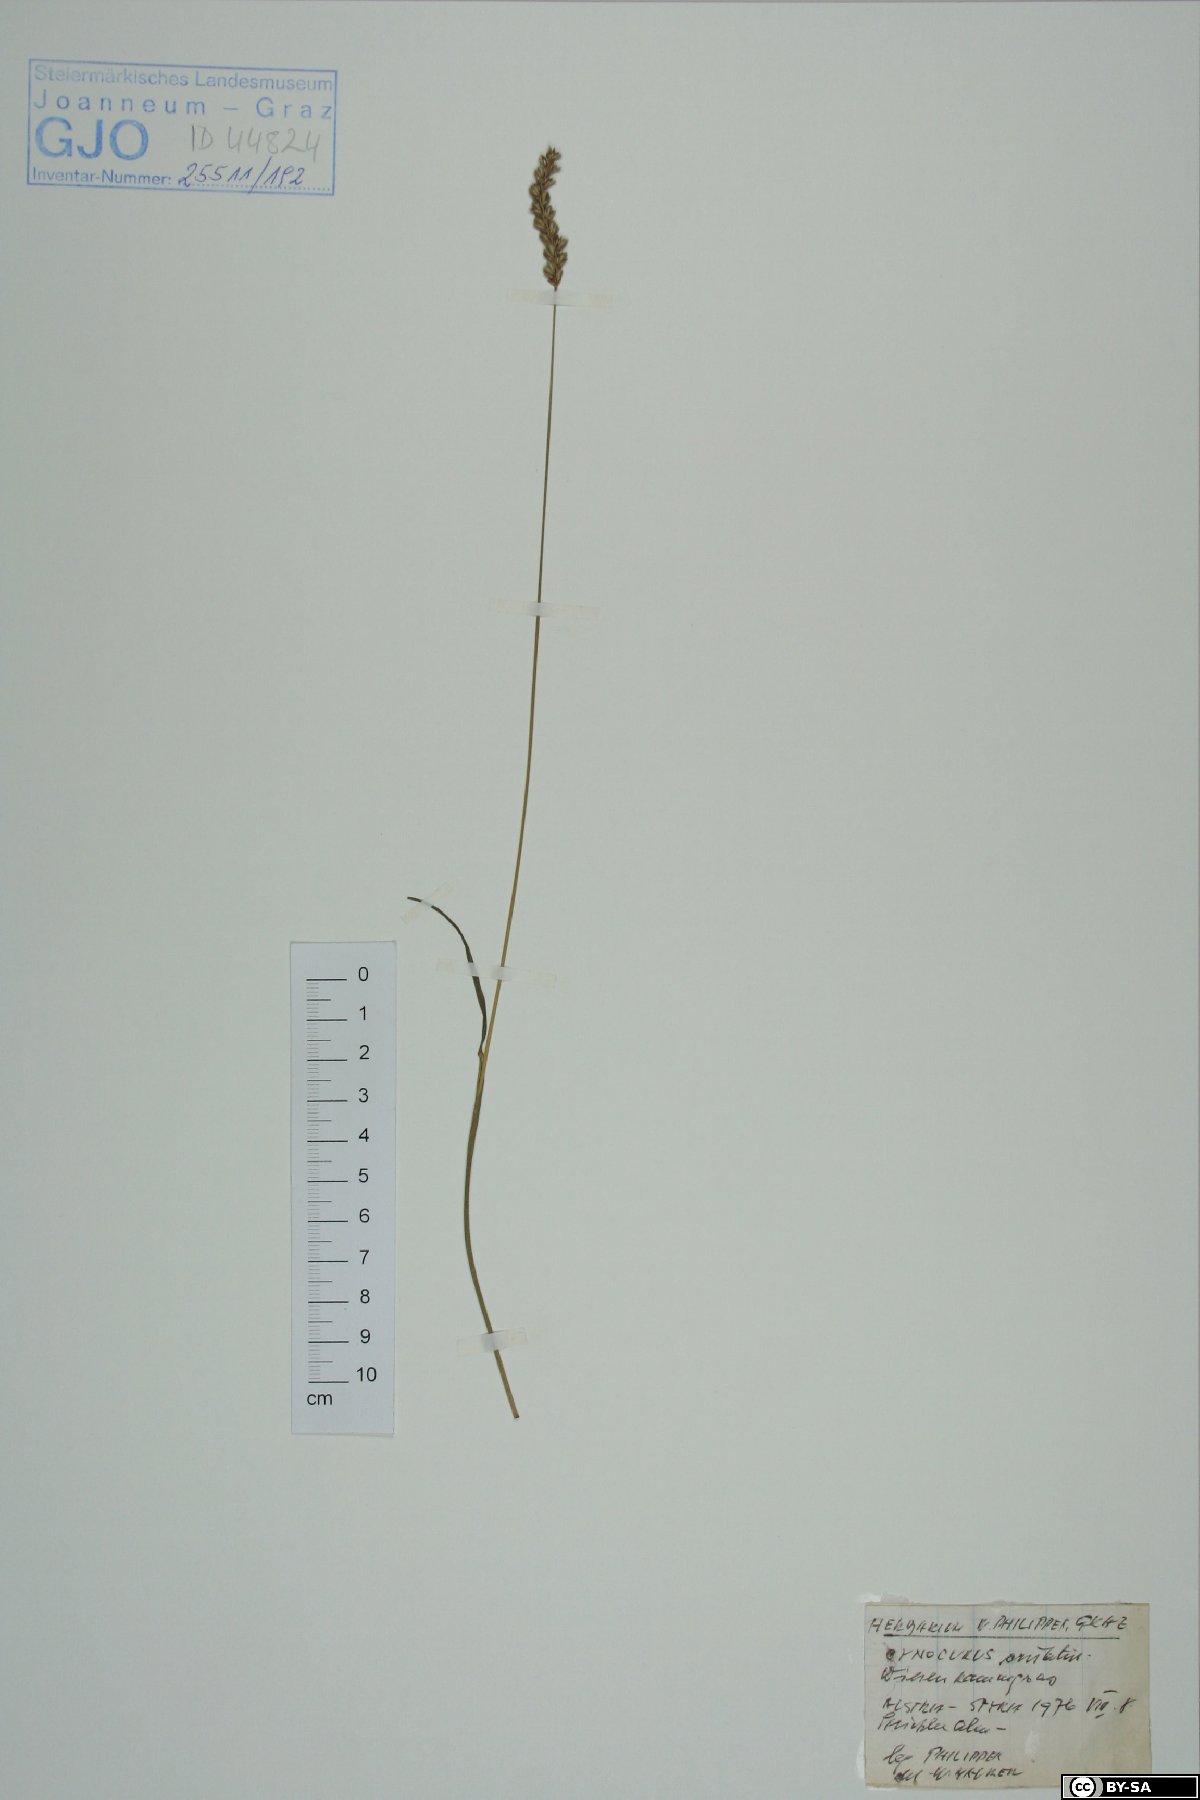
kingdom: Plantae
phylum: Tracheophyta
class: Liliopsida
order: Poales
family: Poaceae
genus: Cynosurus
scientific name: Cynosurus cristatus
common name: Crested dog's-tail
